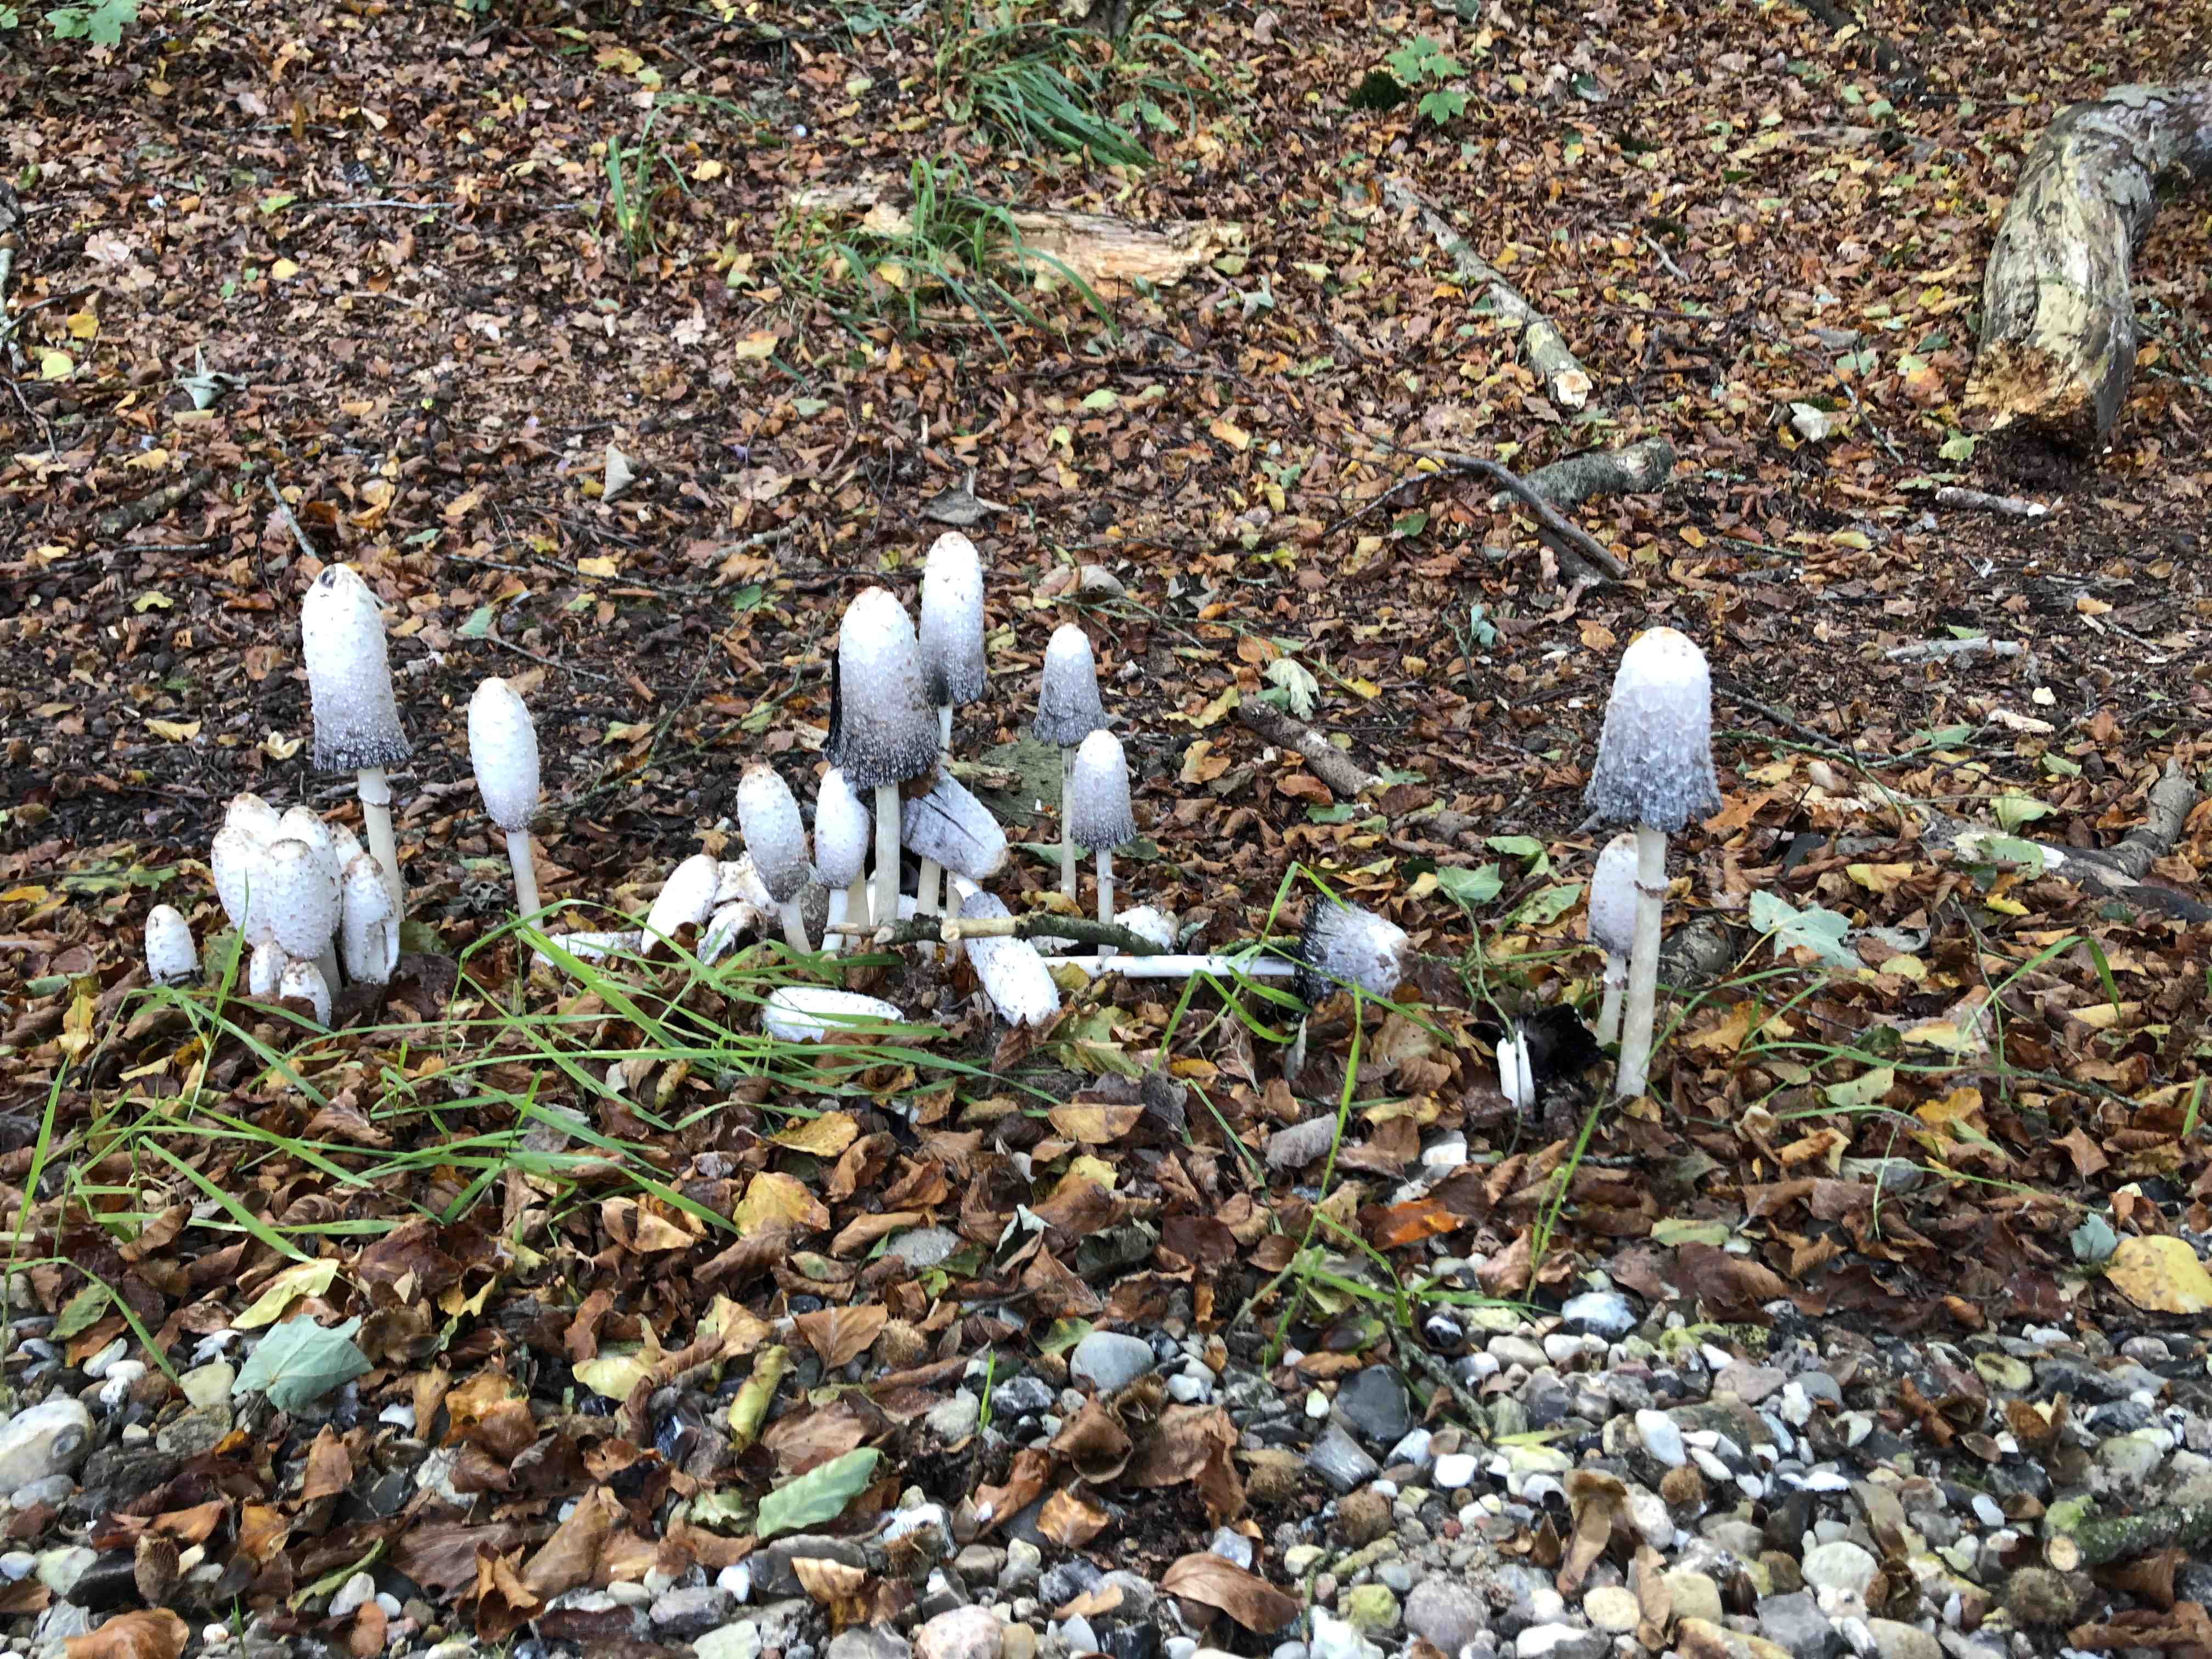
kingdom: Fungi
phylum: Basidiomycota
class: Agaricomycetes
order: Agaricales
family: Agaricaceae
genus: Coprinus
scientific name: Coprinus comatus
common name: stor parykhat
